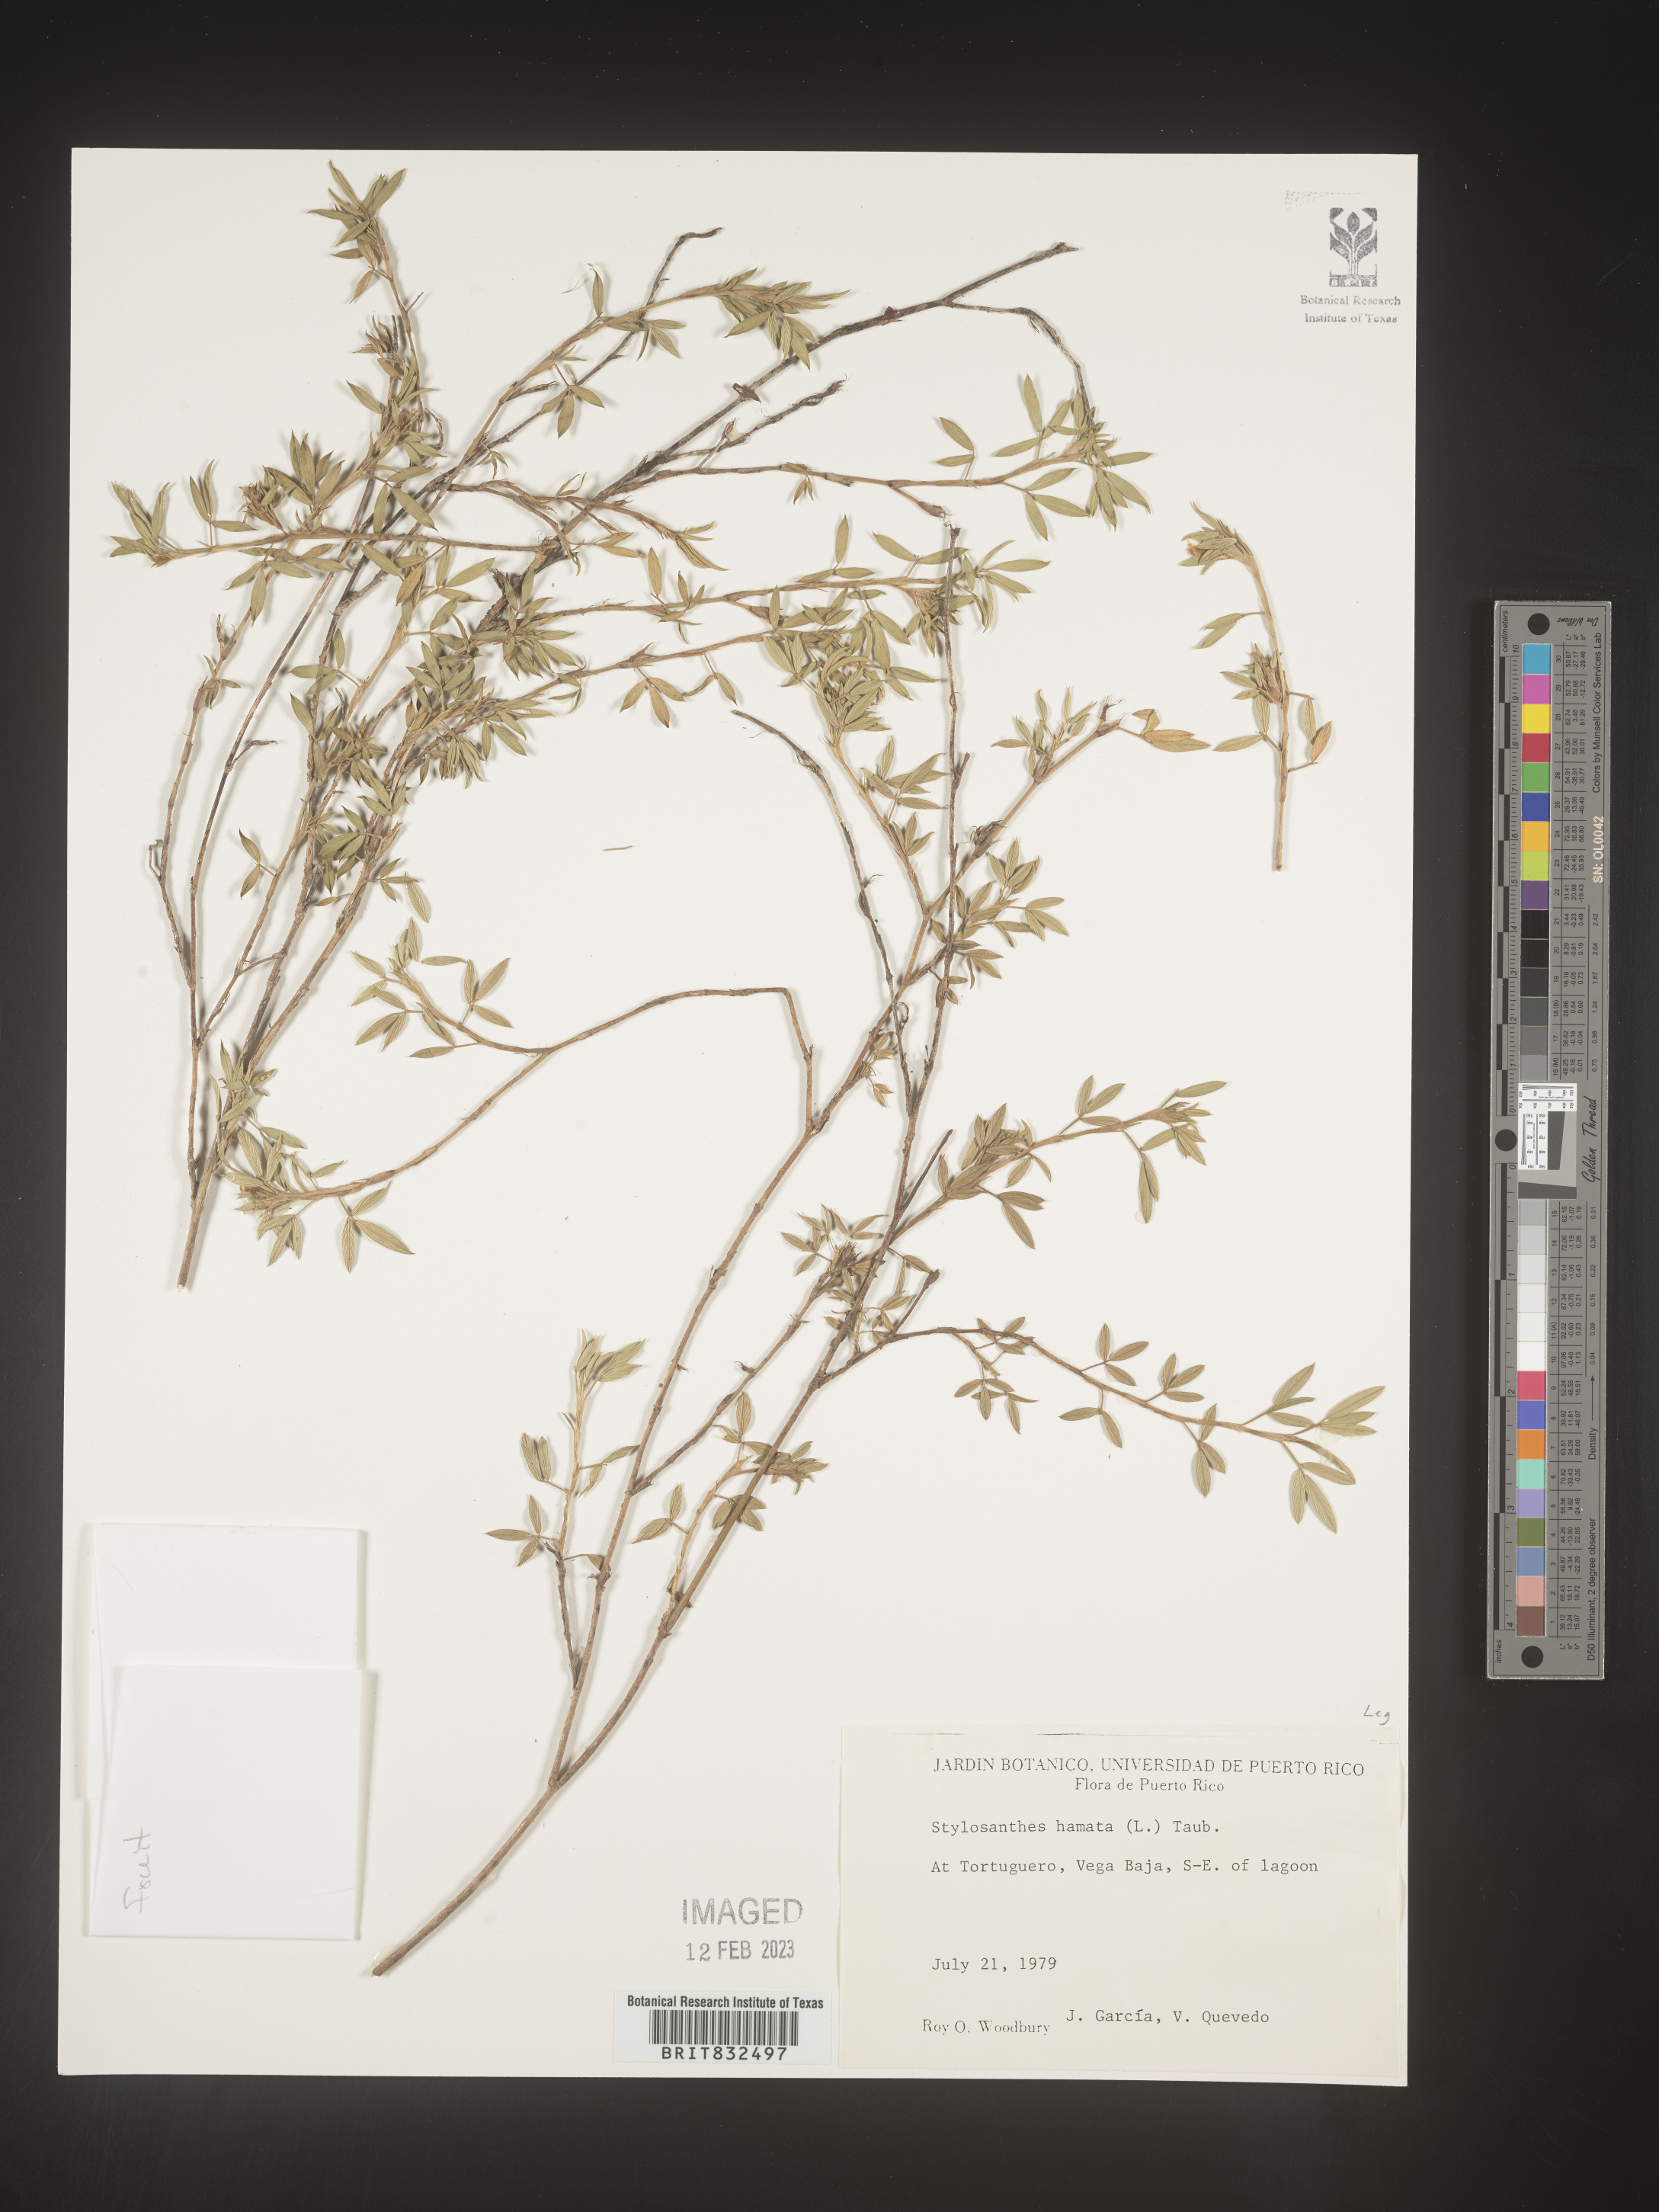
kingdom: Plantae
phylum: Tracheophyta
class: Magnoliopsida
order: Fabales
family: Fabaceae
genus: Stylosanthes
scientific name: Stylosanthes
